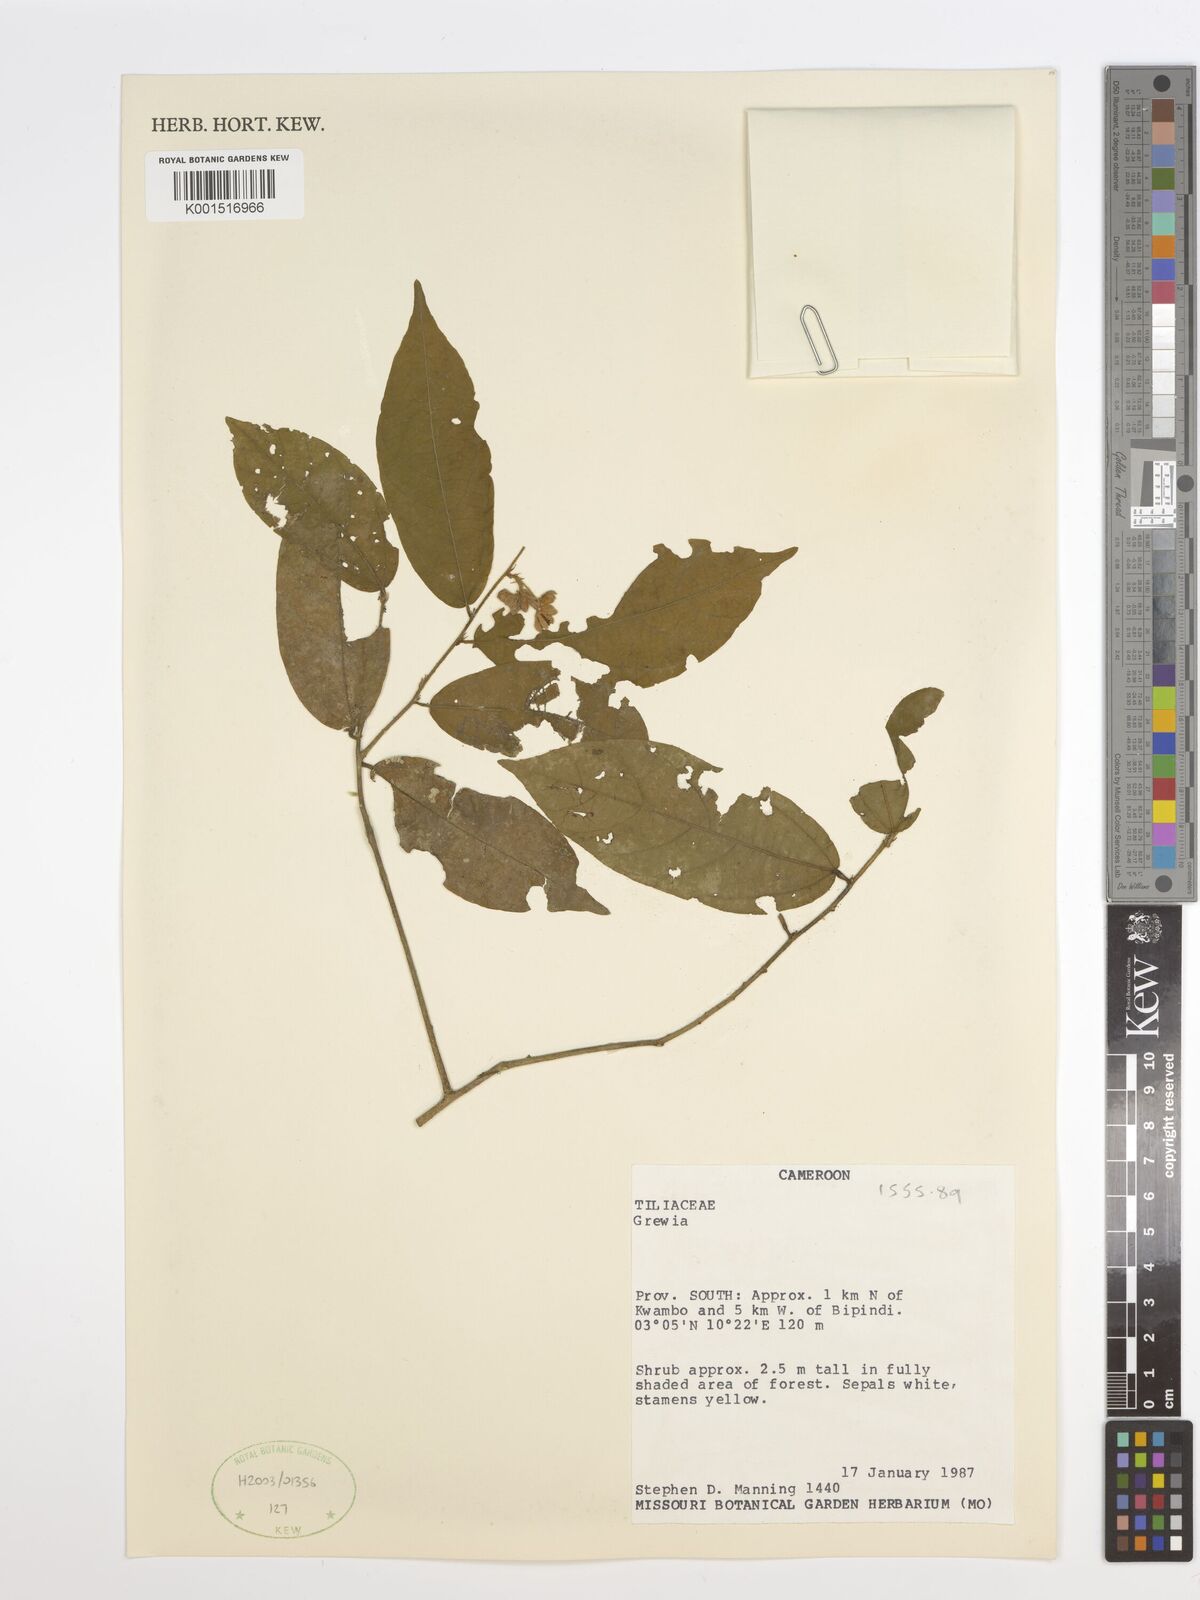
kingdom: Plantae
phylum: Tracheophyta
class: Magnoliopsida
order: Malvales
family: Malvaceae
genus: Grewia
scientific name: Grewia
